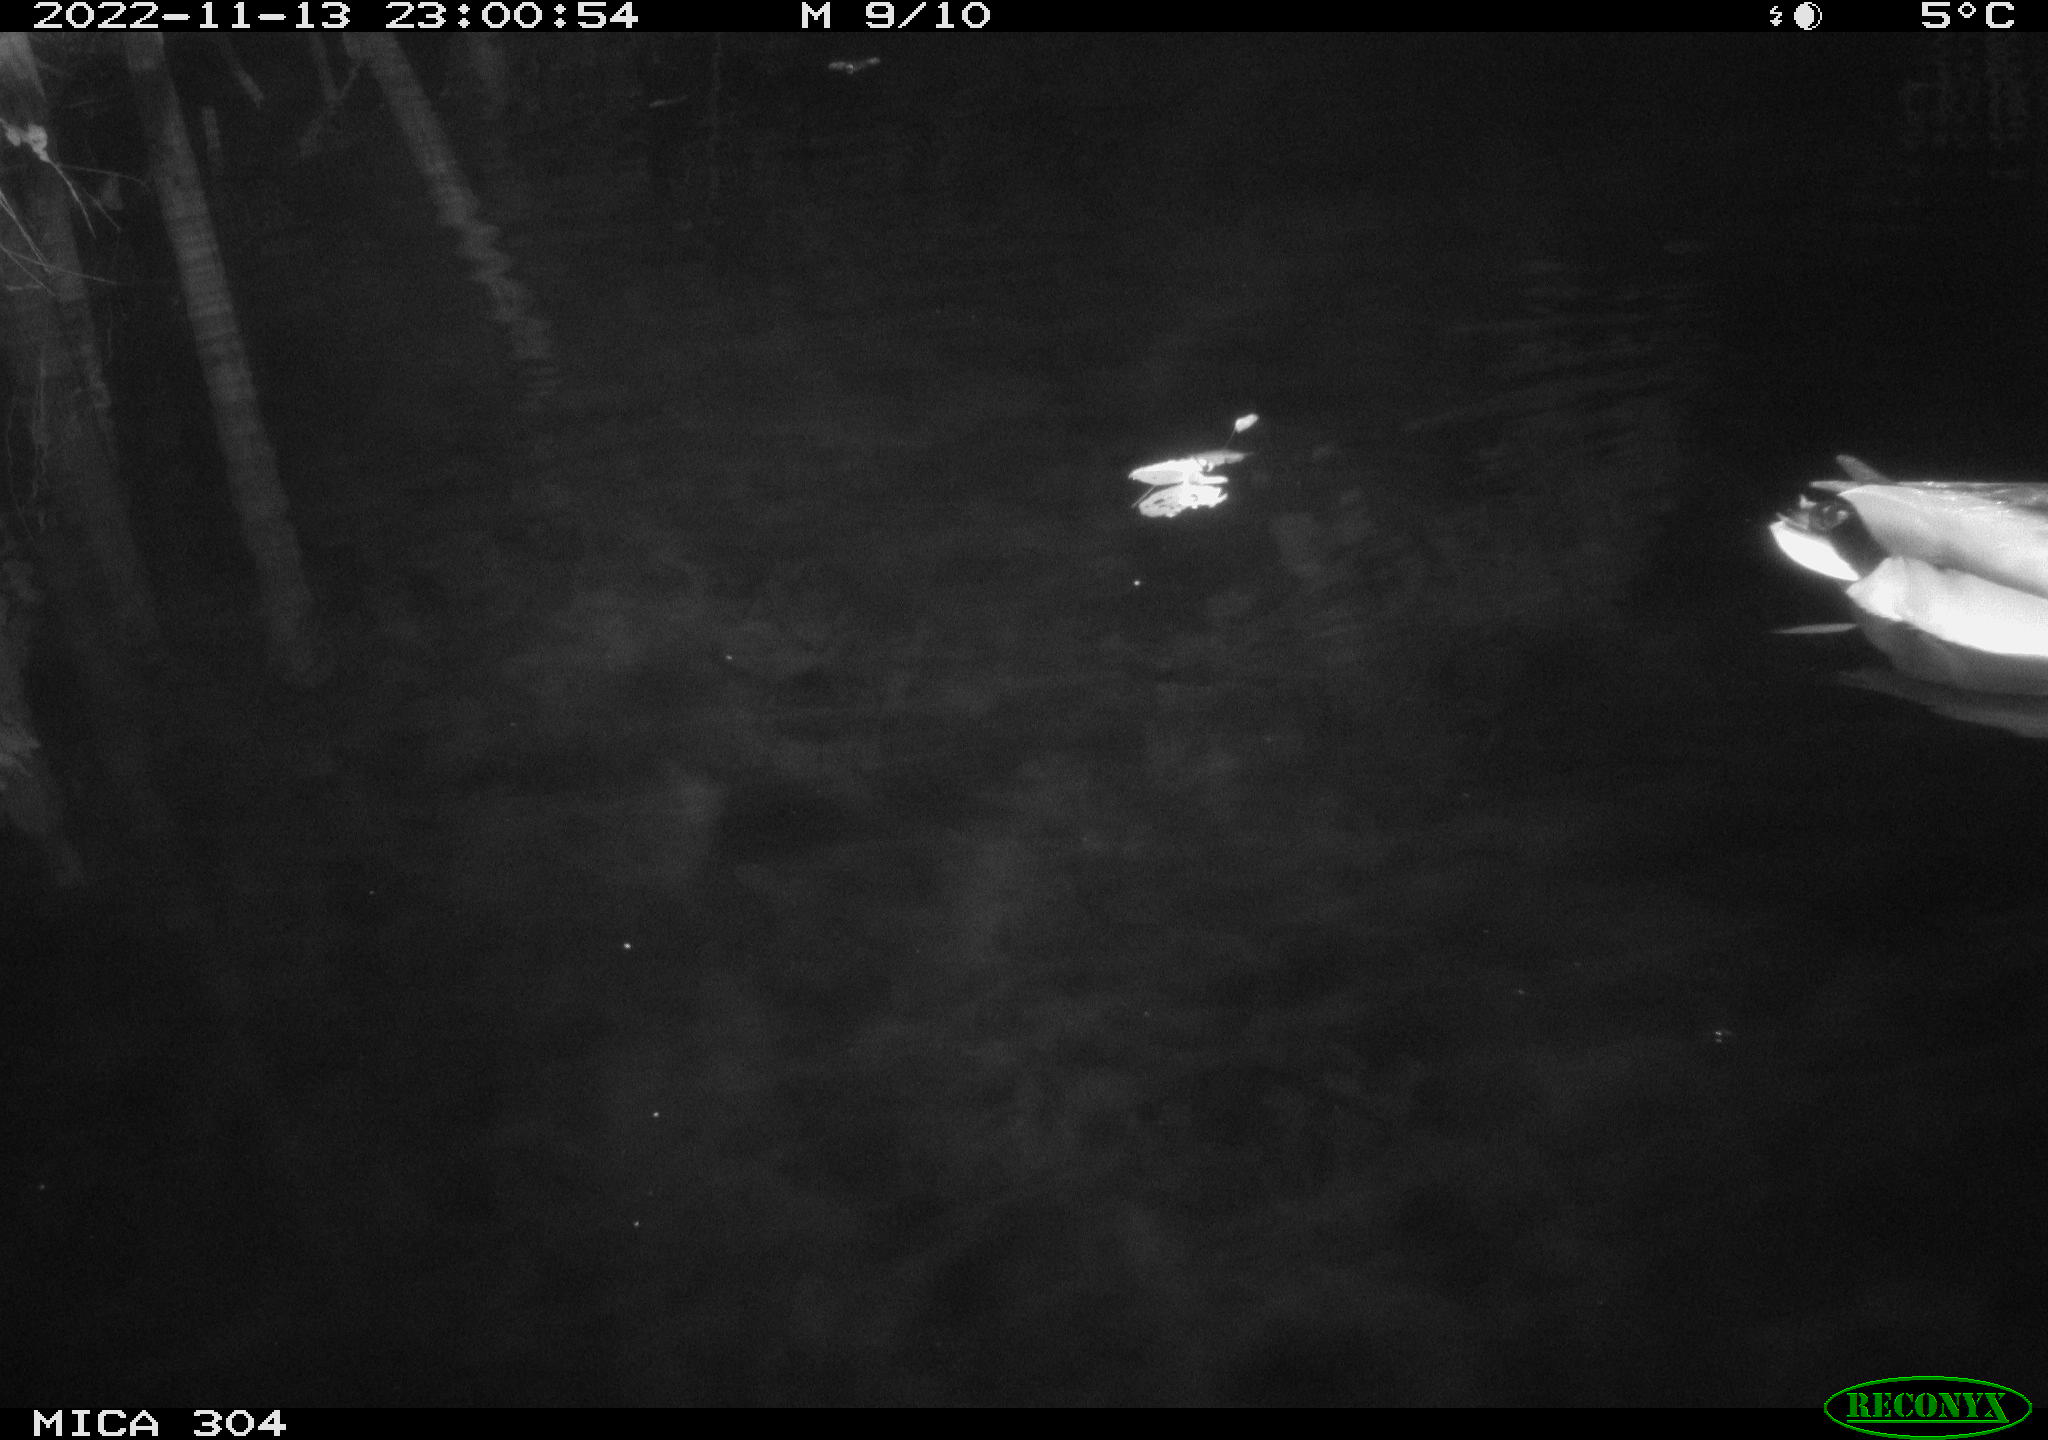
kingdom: Animalia
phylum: Chordata
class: Aves
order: Anseriformes
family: Anatidae
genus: Anas
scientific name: Anas
